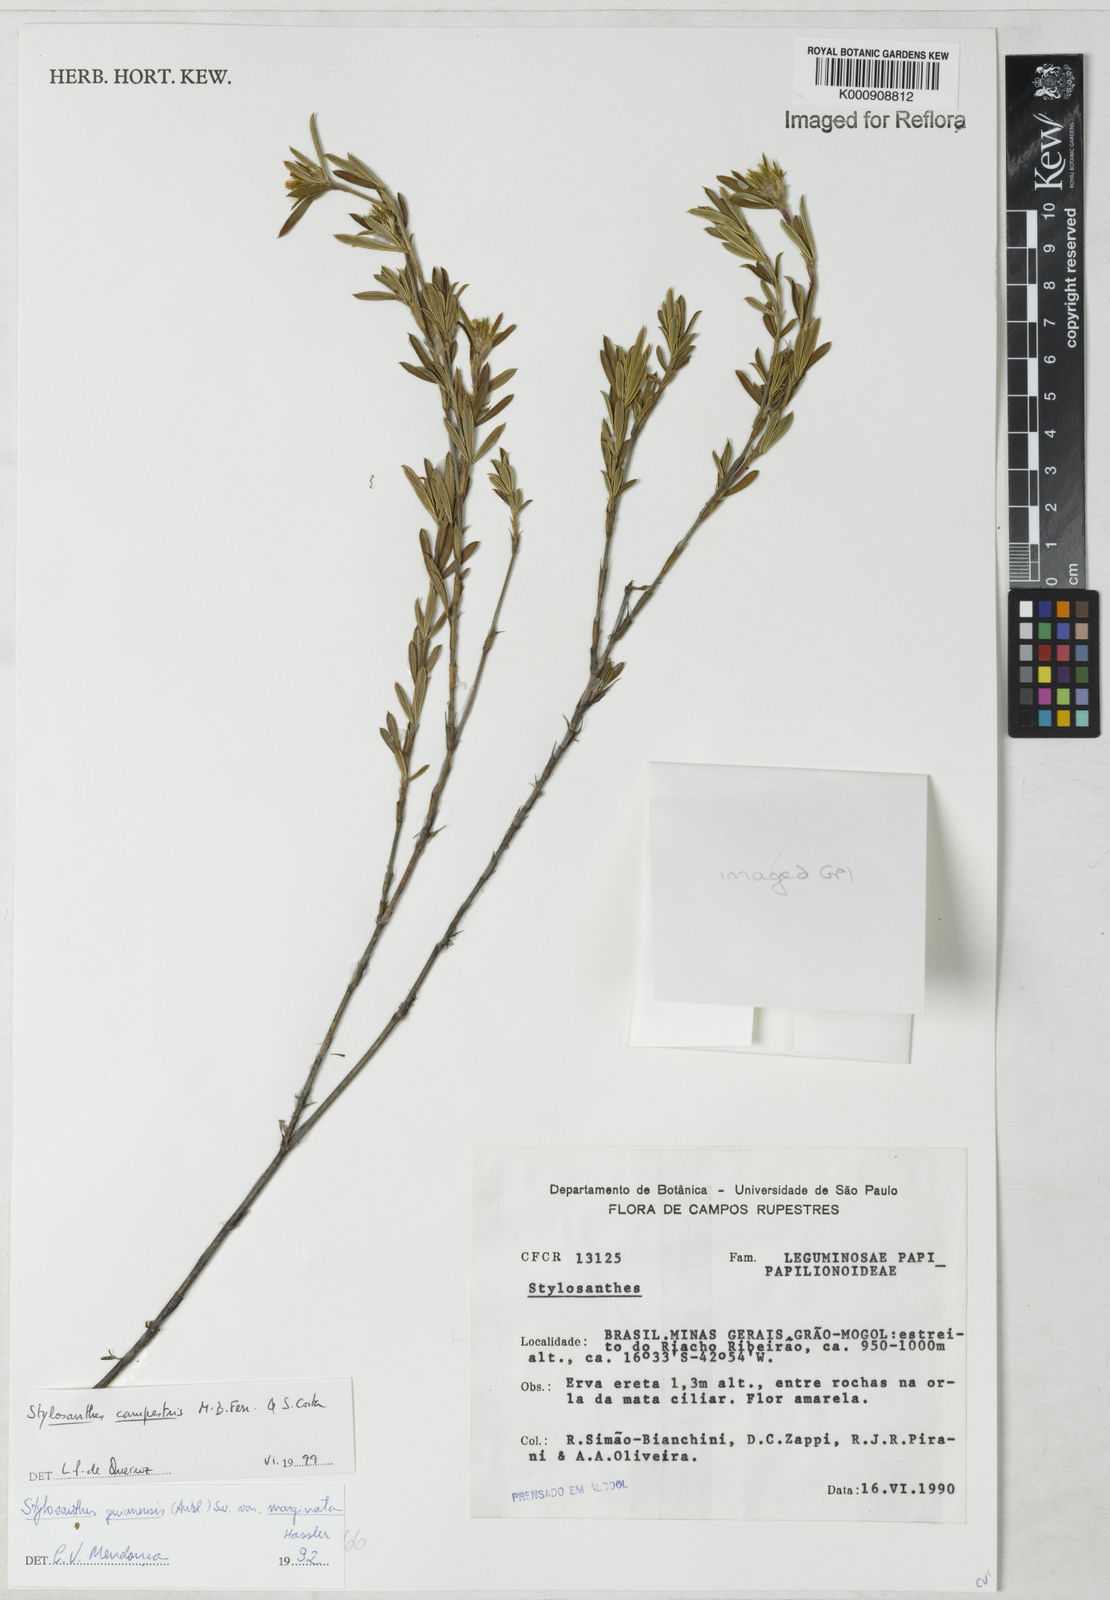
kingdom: Plantae
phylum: Tracheophyta
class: Magnoliopsida
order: Fabales
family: Fabaceae
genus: Stylosanthes
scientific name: Stylosanthes campestris
